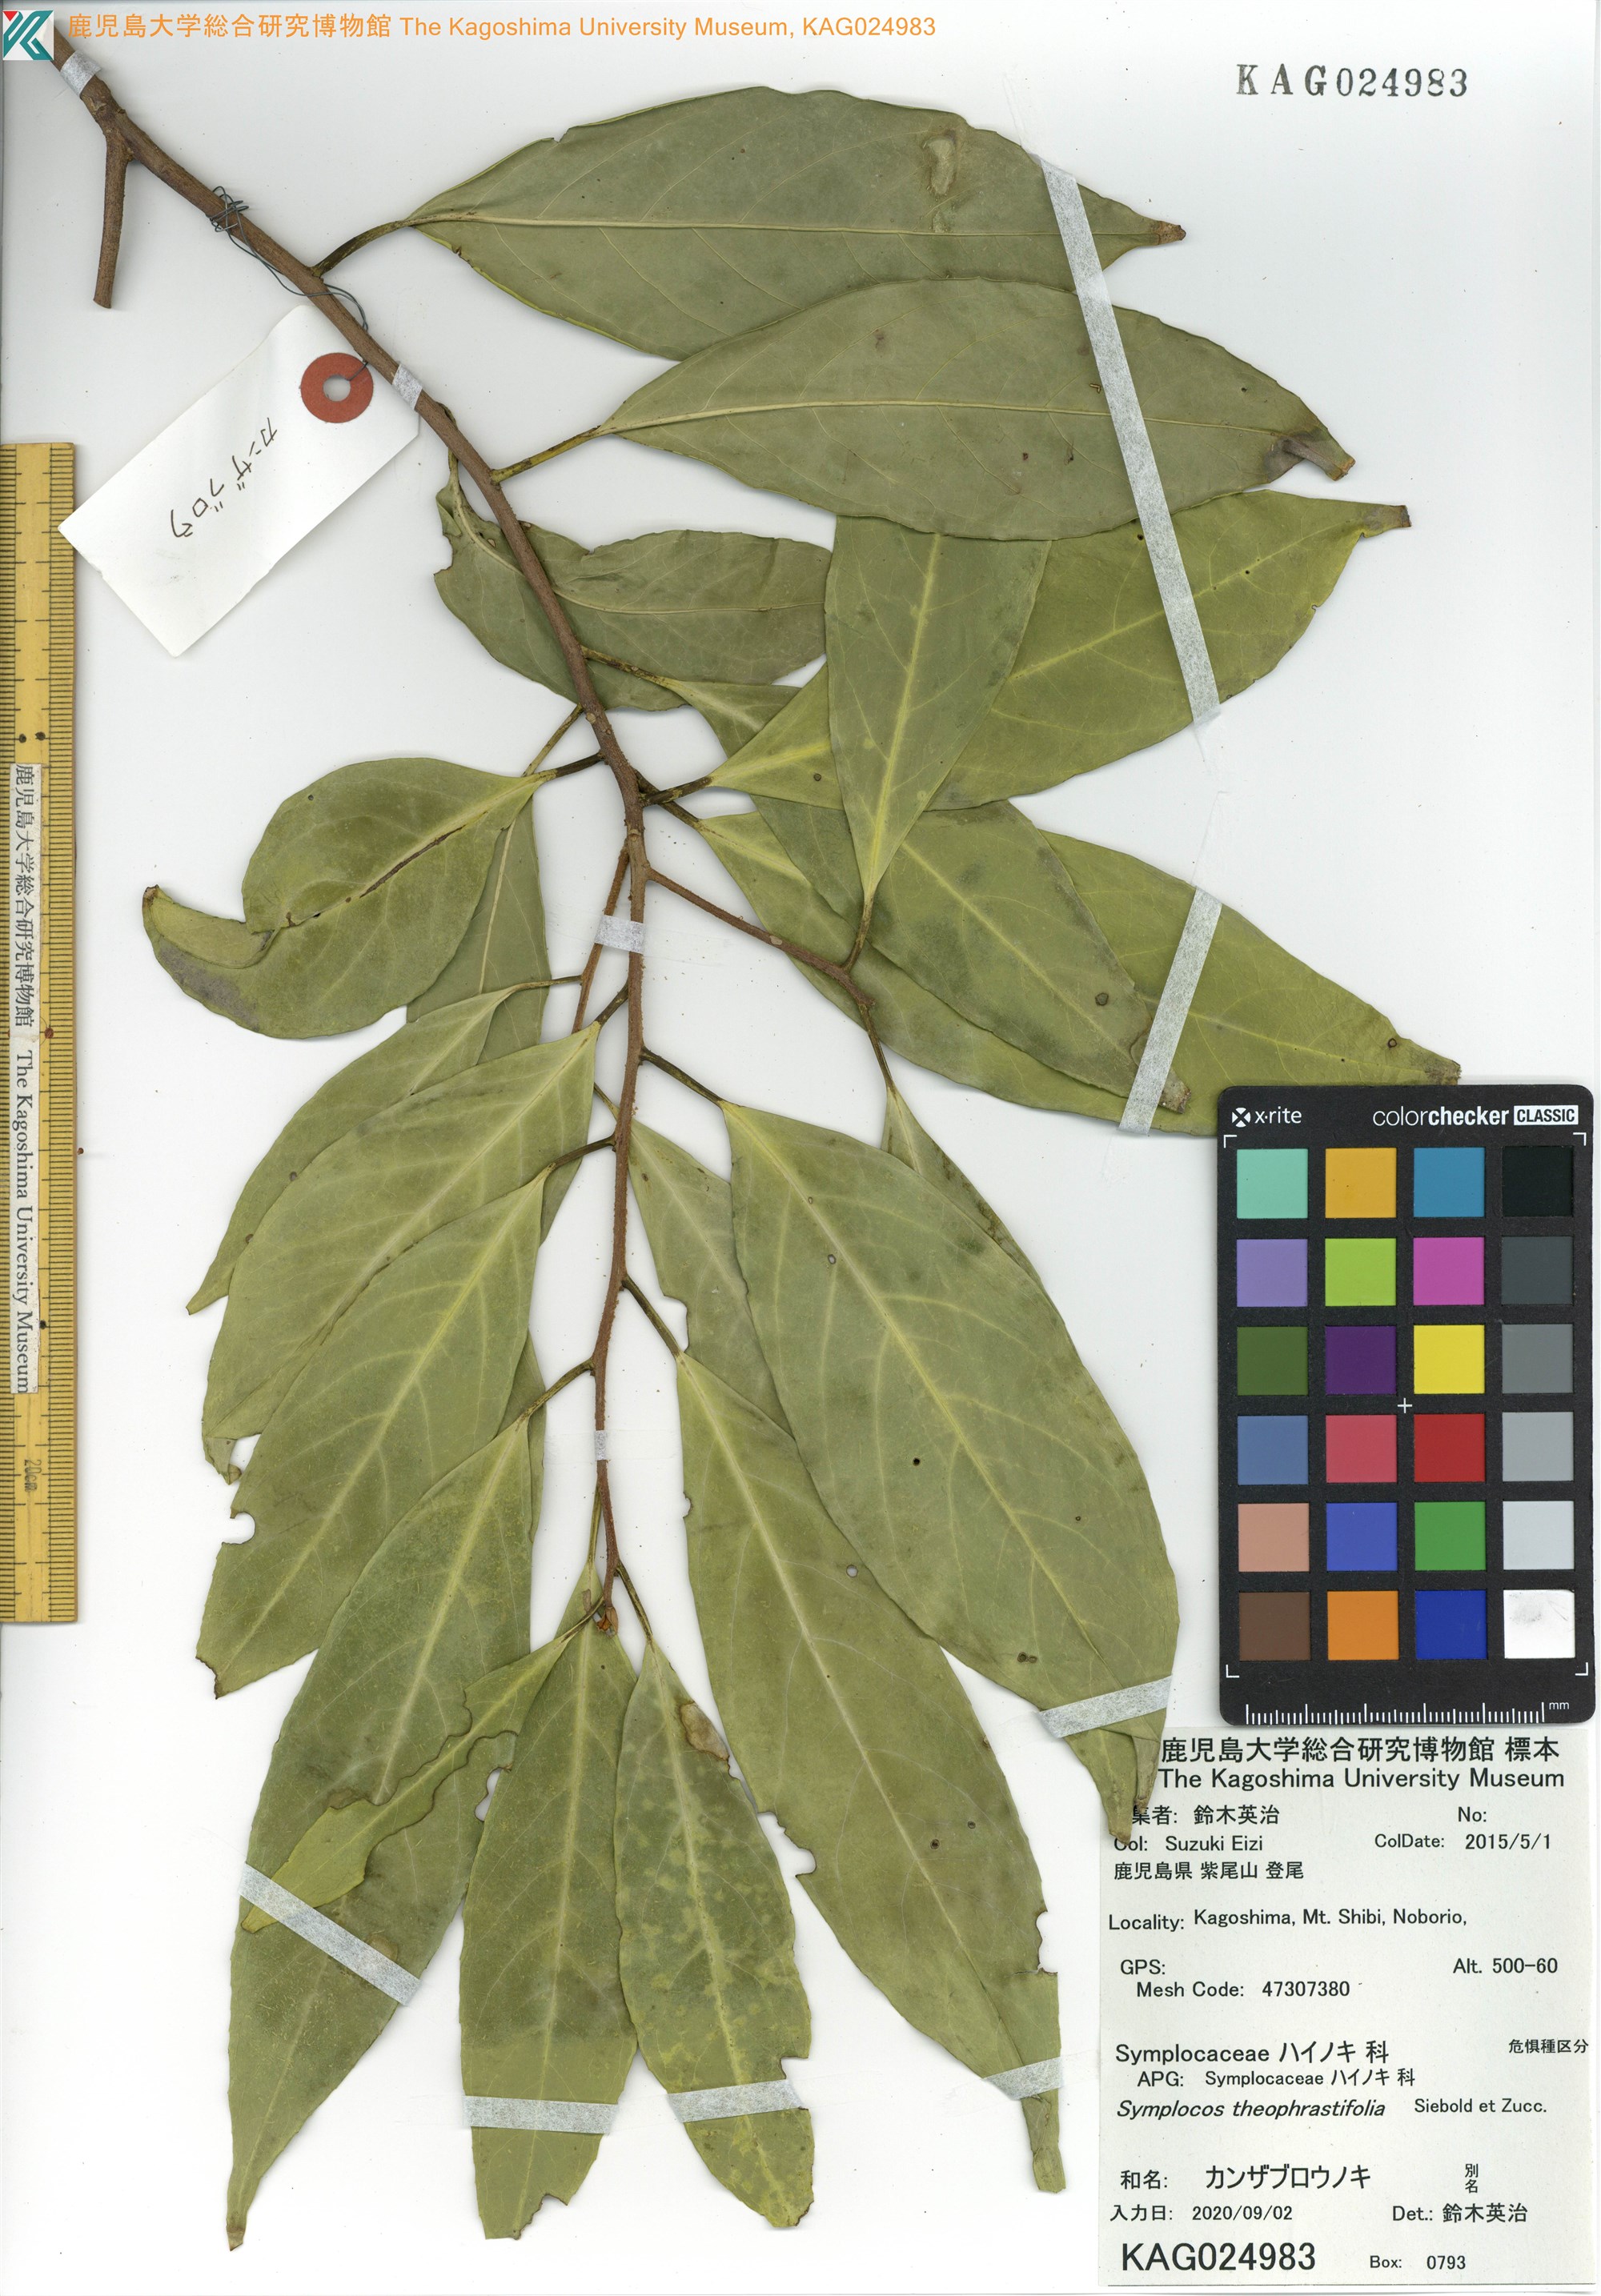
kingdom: Plantae
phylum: Tracheophyta
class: Magnoliopsida
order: Ericales
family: Symplocaceae
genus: Symplocos
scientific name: Symplocos theophrastifolia
